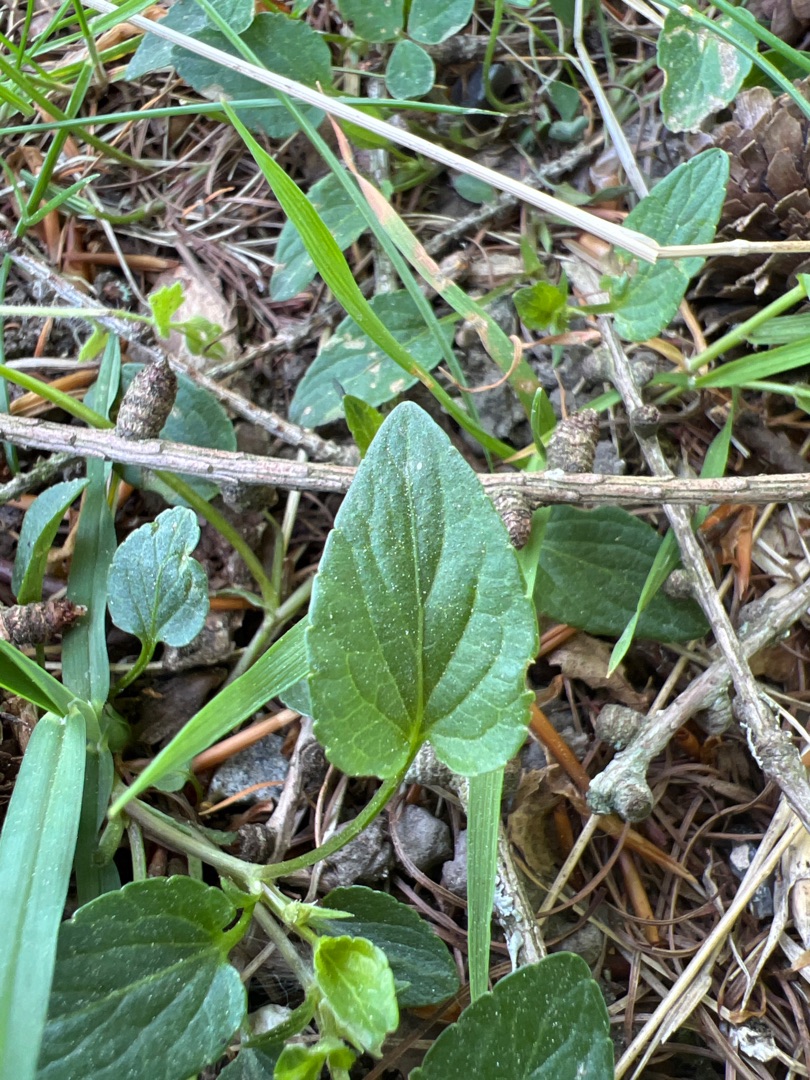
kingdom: Plantae
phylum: Tracheophyta
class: Magnoliopsida
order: Malpighiales
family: Violaceae
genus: Viola
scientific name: Viola canina
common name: Hunde-viol
